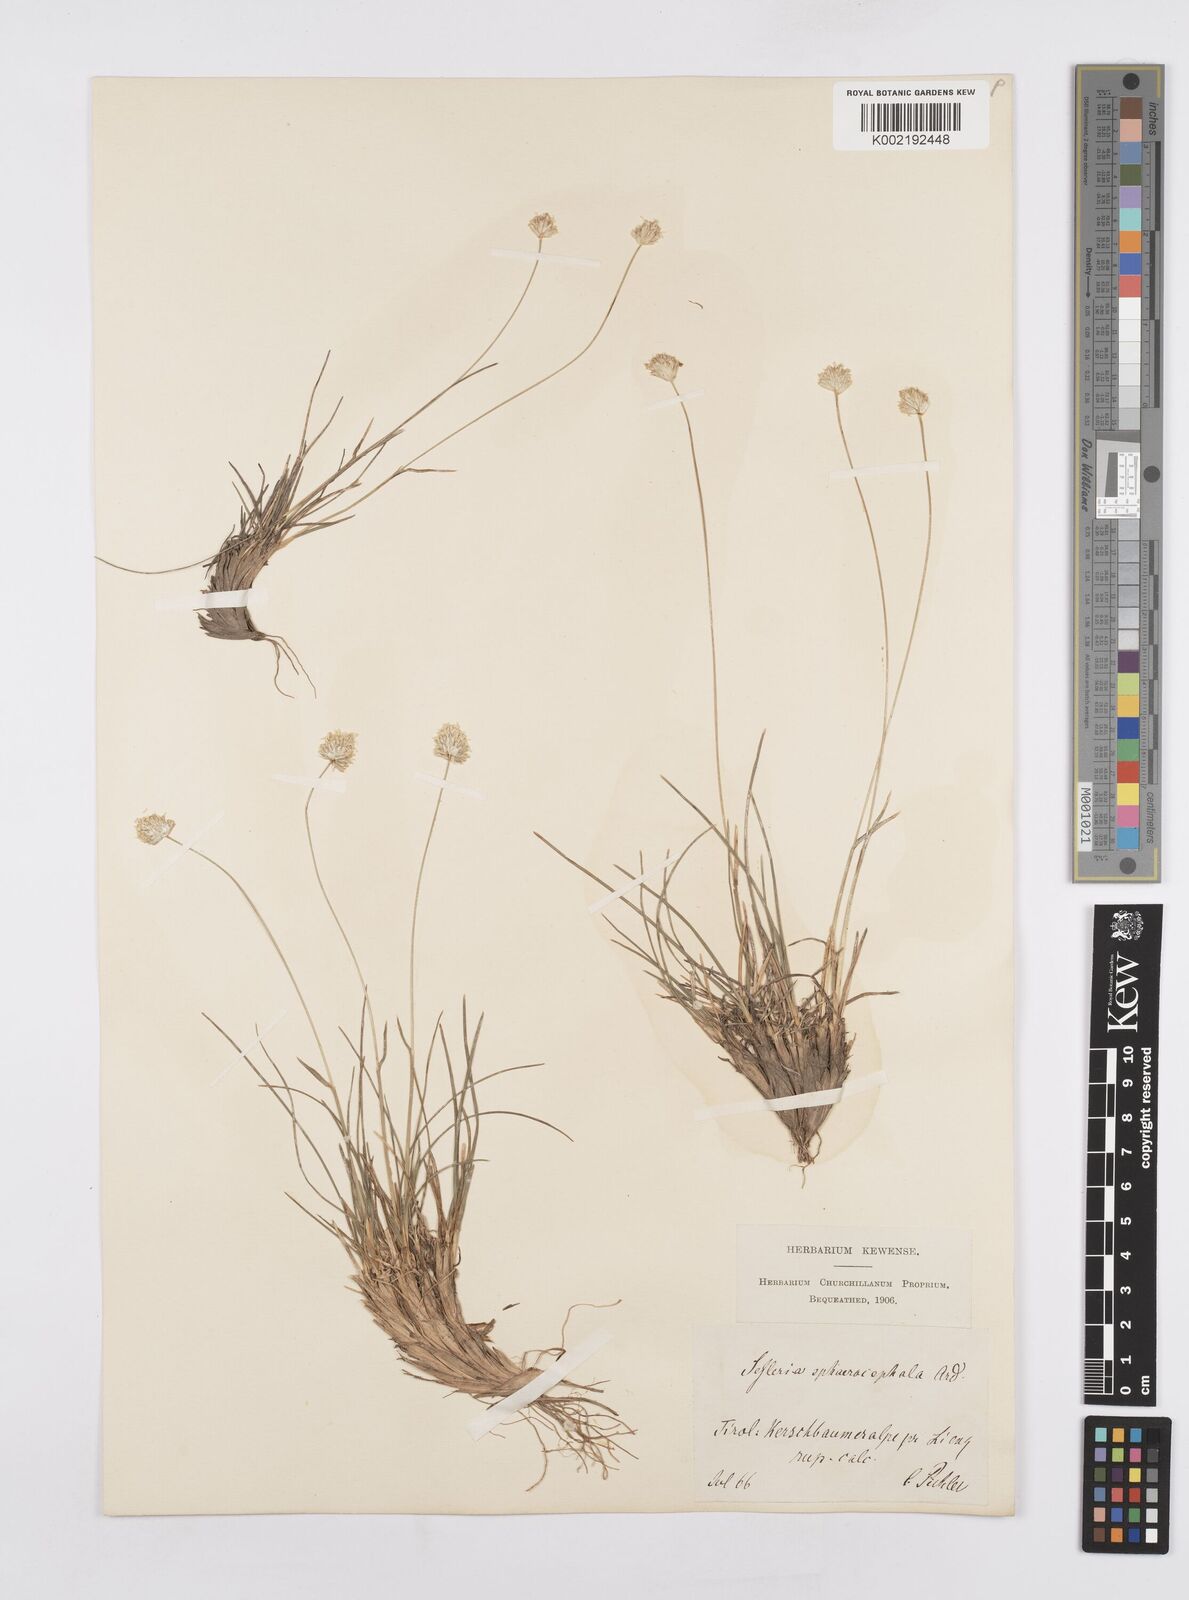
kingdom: Plantae
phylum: Tracheophyta
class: Liliopsida
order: Poales
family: Poaceae
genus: Sesleriella
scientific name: Sesleriella sphaerocephala
